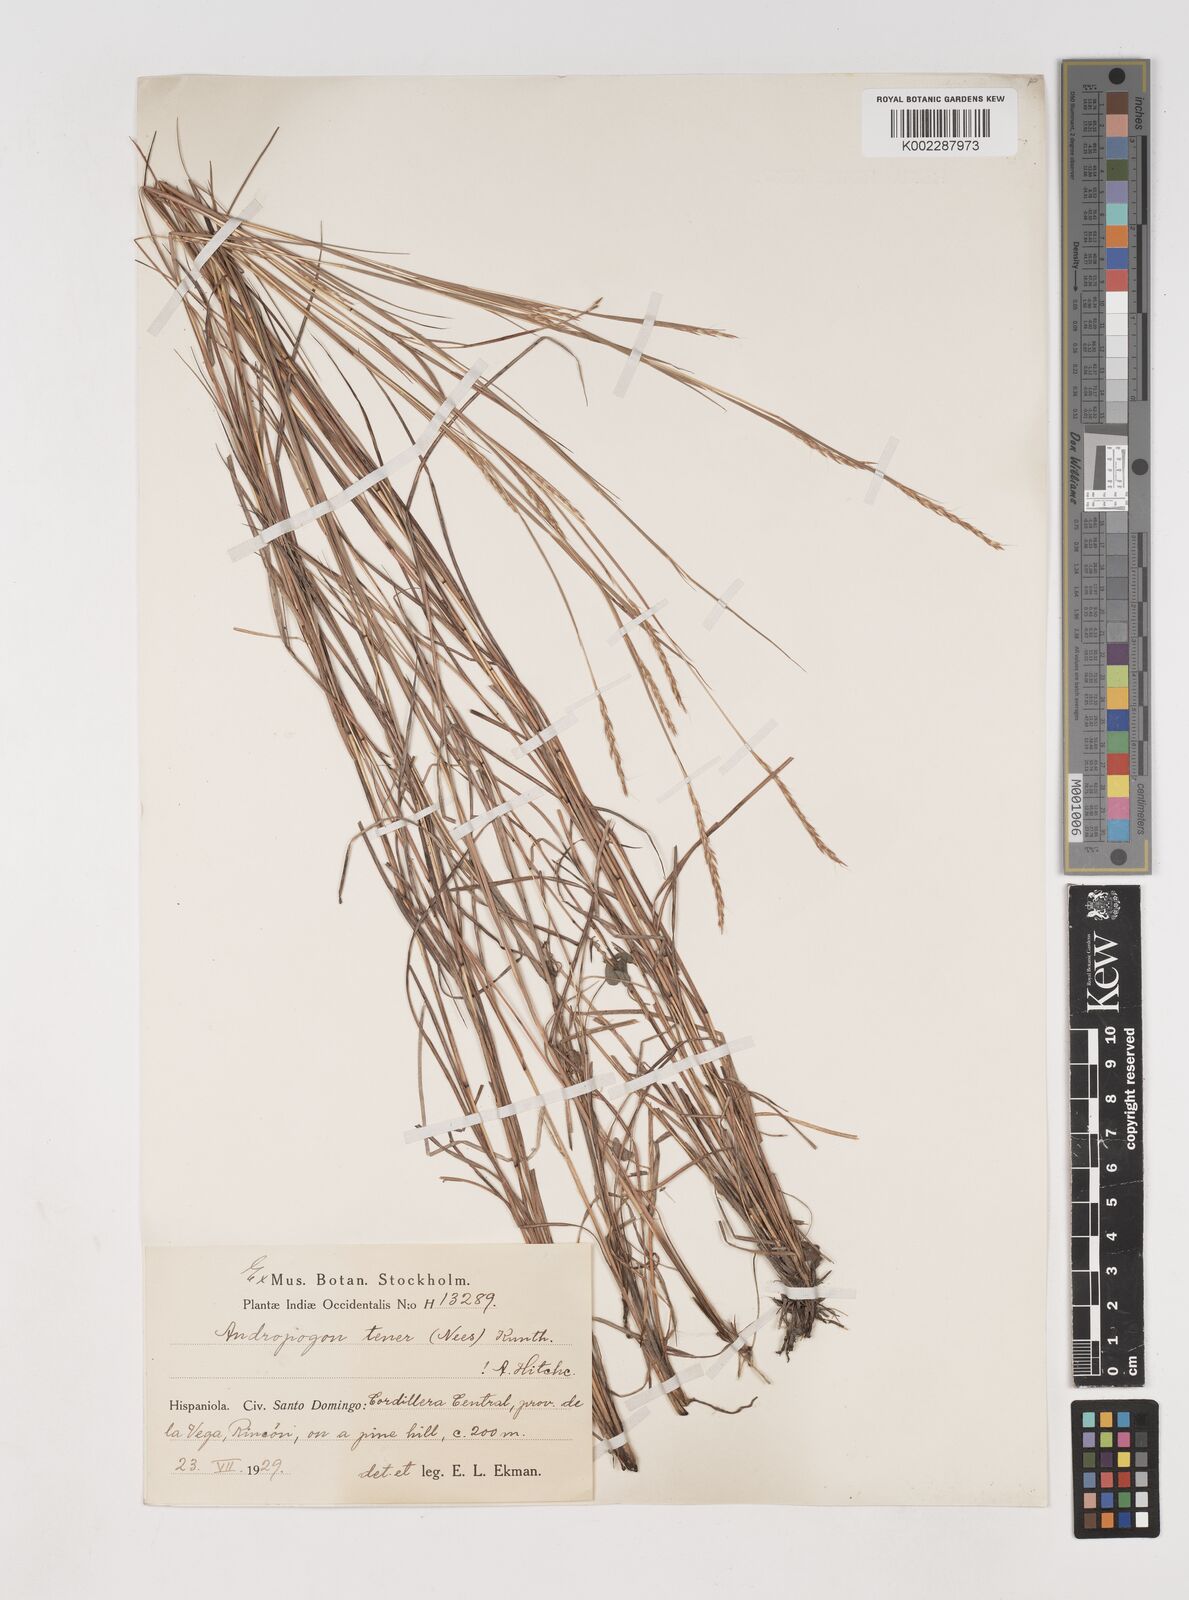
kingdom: Plantae
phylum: Tracheophyta
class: Liliopsida
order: Poales
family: Poaceae
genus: Andropogon
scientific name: Andropogon tener
